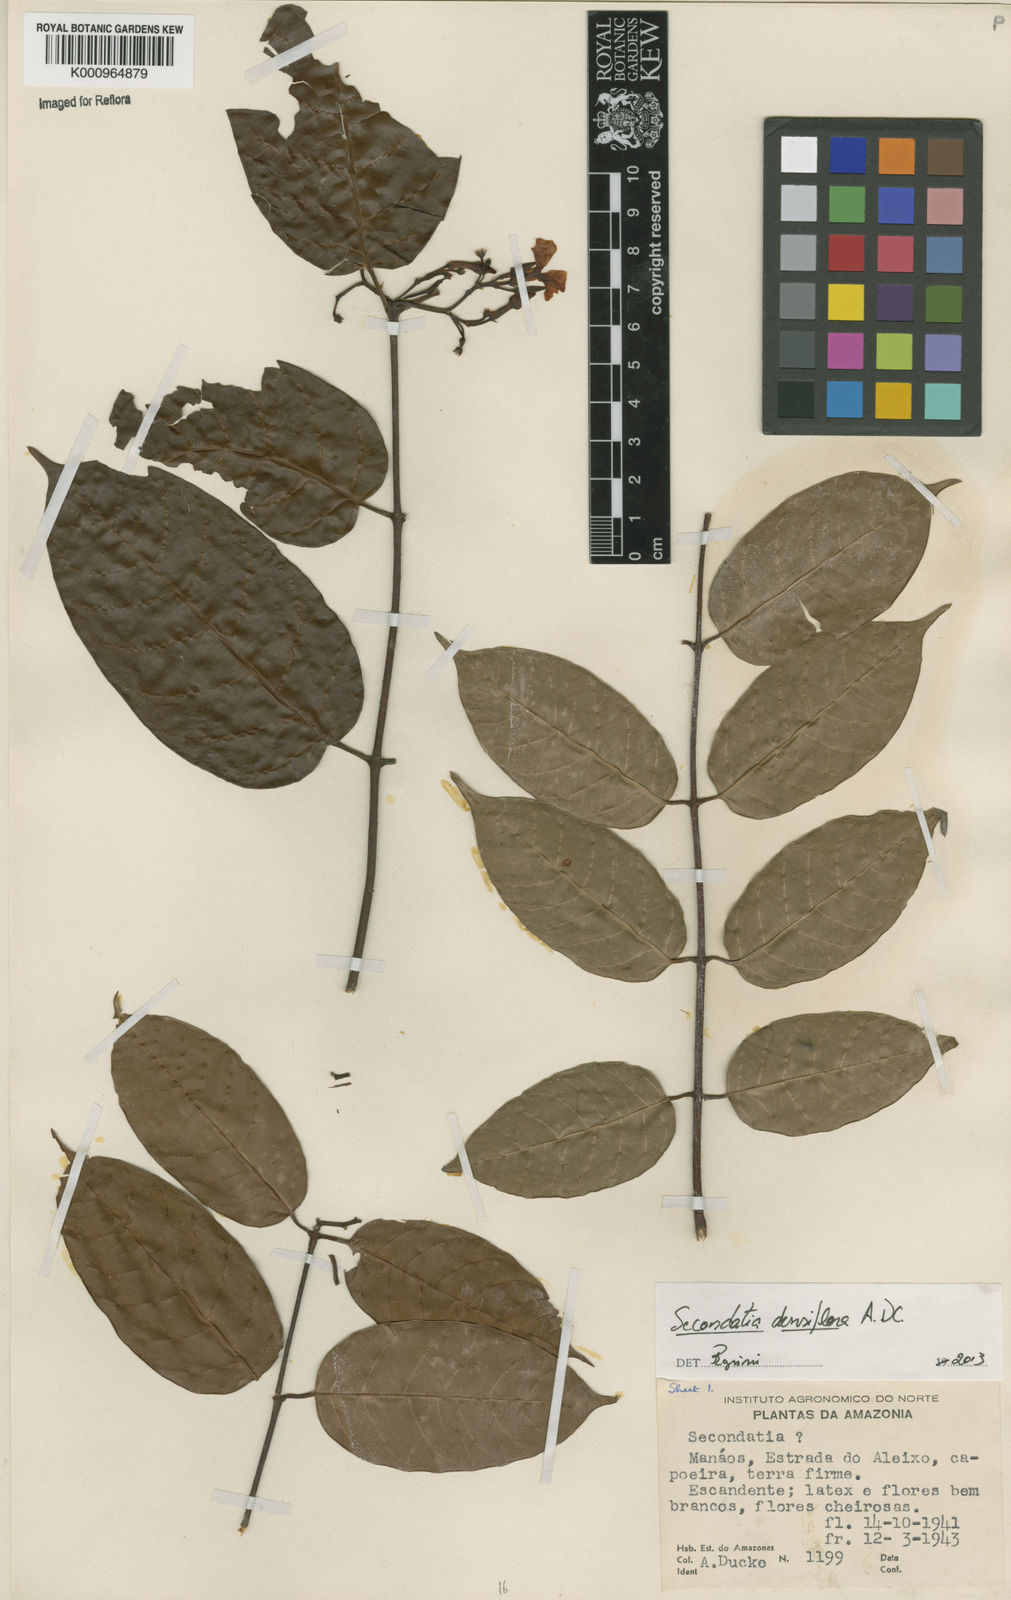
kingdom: Plantae
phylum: Tracheophyta
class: Magnoliopsida
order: Gentianales
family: Apocynaceae
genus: Secondatia
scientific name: Secondatia densiflora
